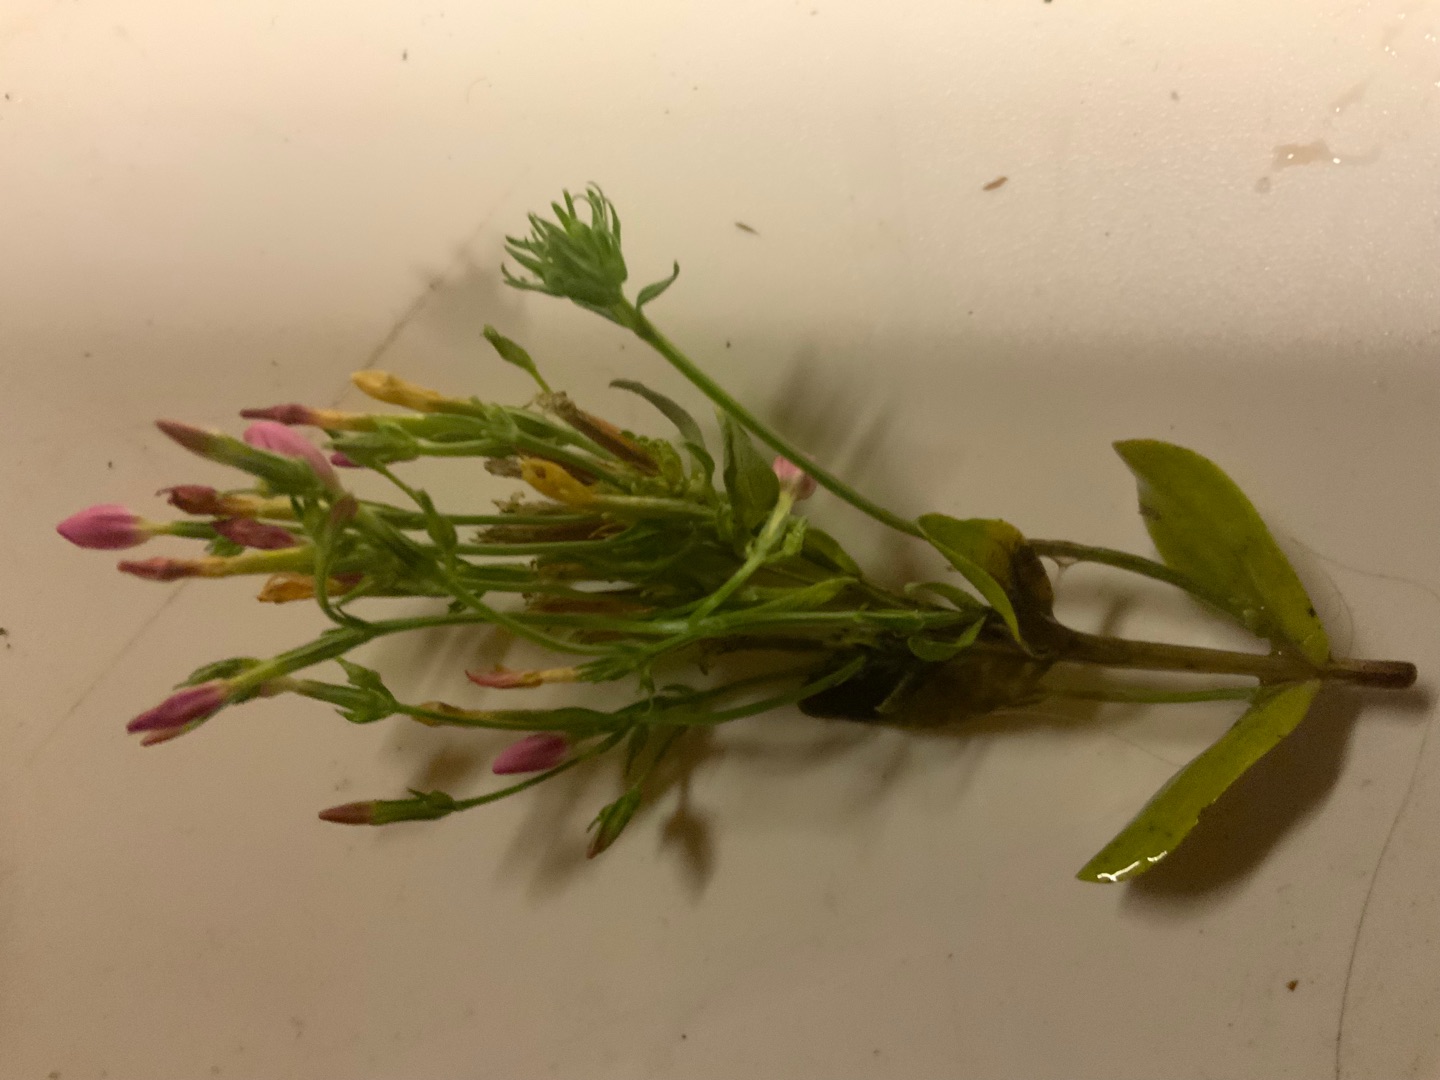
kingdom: Plantae
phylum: Tracheophyta
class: Magnoliopsida
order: Gentianales
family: Gentianaceae
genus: Centaurium
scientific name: Centaurium erythraea
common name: Mark-tusindgylden
